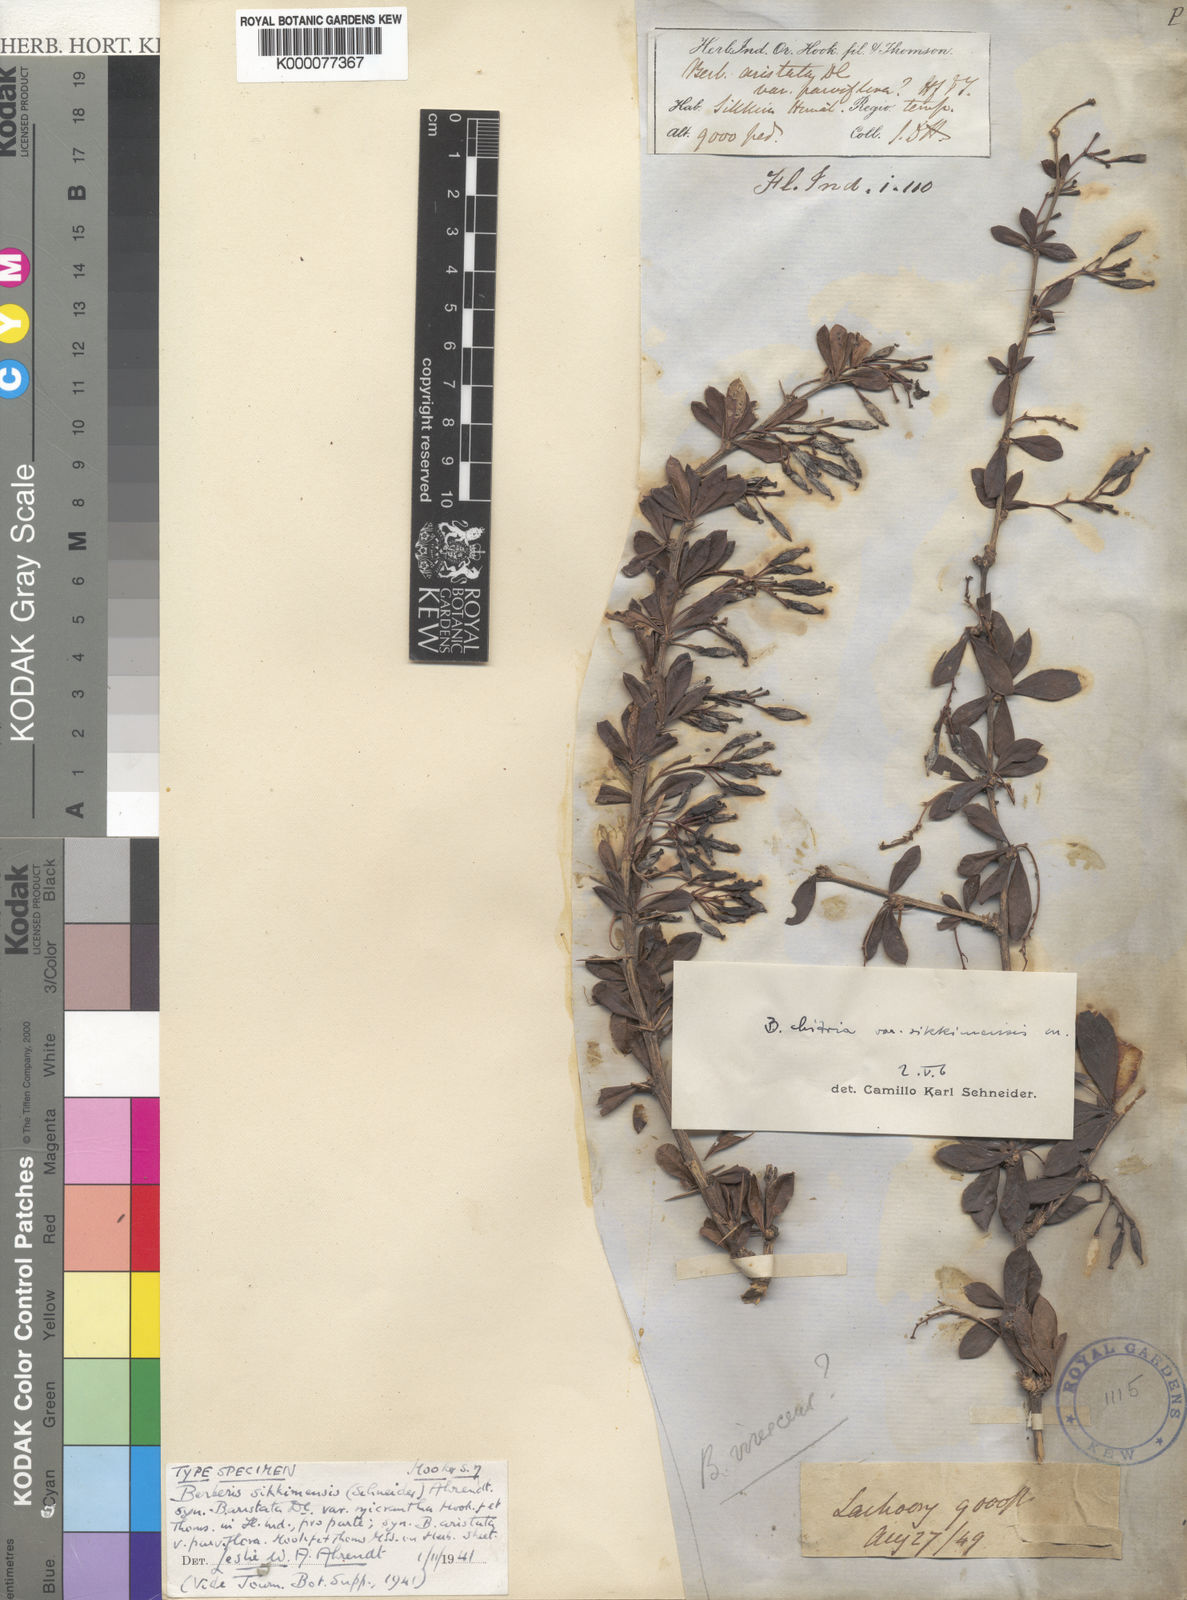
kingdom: Plantae
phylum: Tracheophyta
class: Magnoliopsida
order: Ranunculales
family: Berberidaceae
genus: Berberis
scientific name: Berberis aristata
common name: Indian barberry
